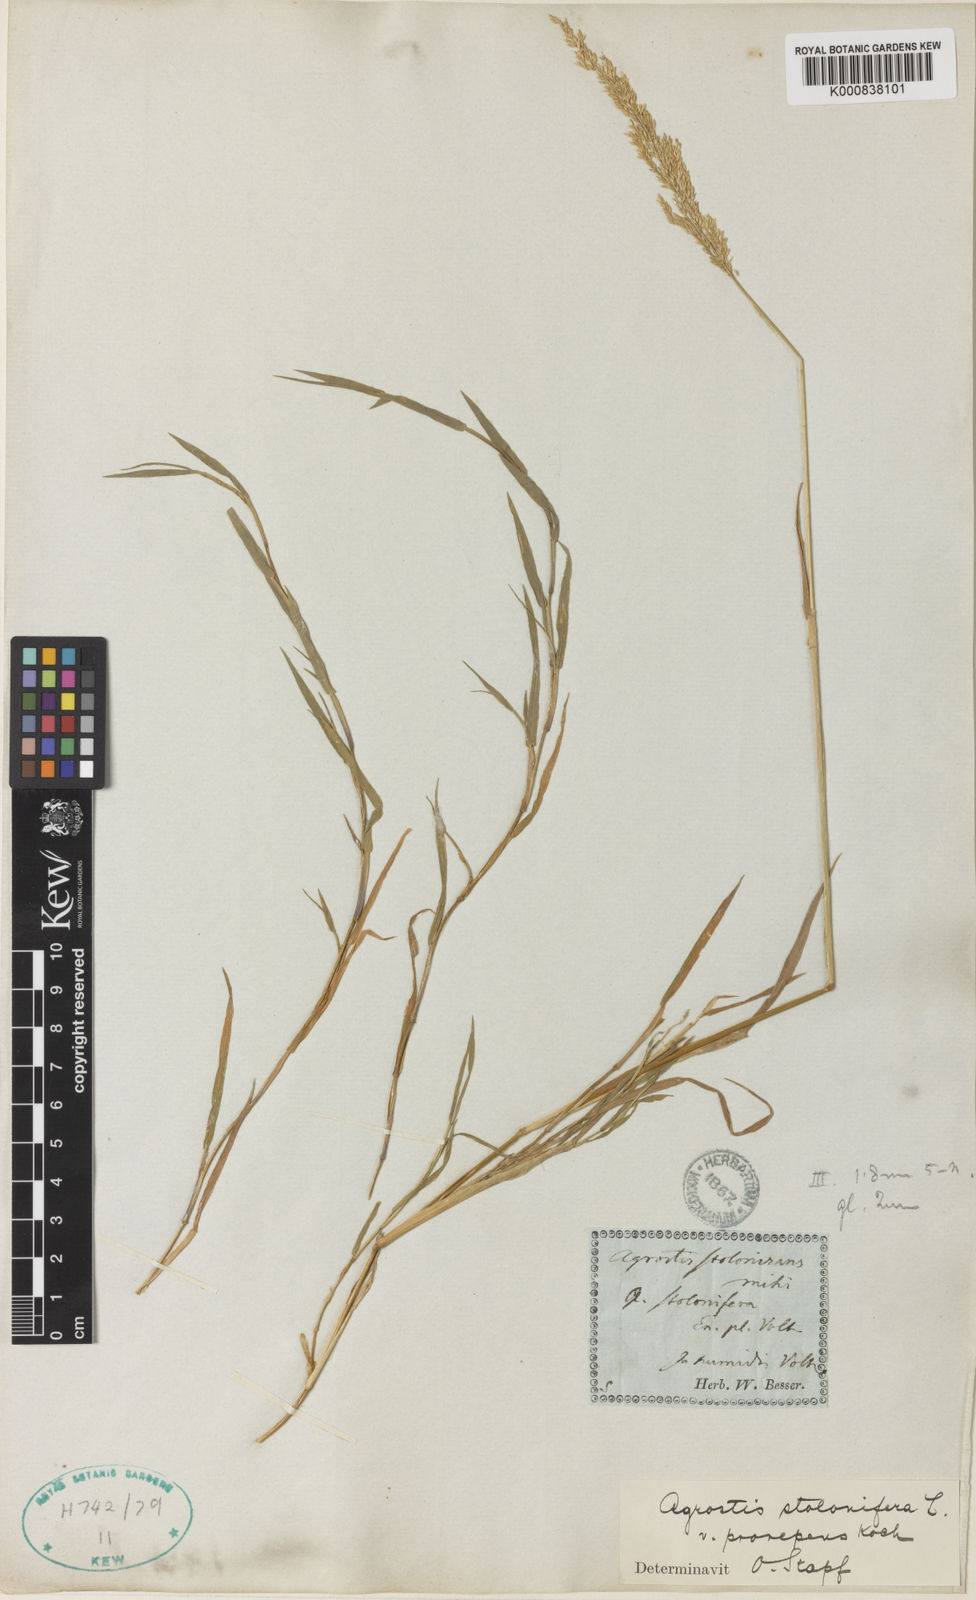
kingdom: Plantae
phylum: Tracheophyta
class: Liliopsida
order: Poales
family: Poaceae
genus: Agrostis
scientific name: Agrostis stolonifera
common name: Creeping bentgrass
